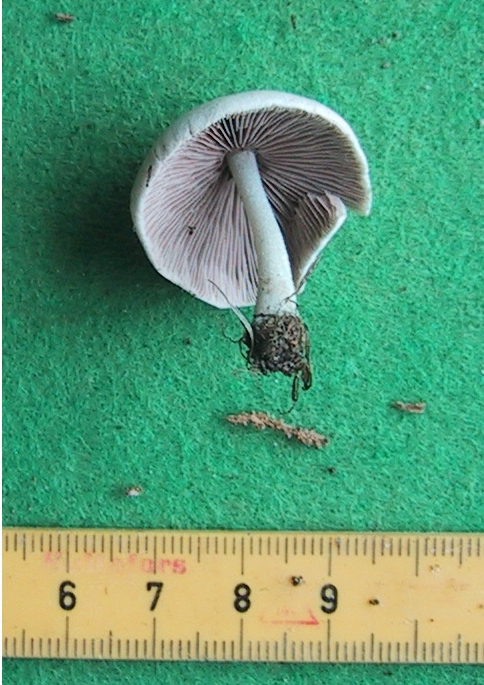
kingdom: Fungi
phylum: Basidiomycota
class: Agaricomycetes
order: Agaricales
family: Psathyrellaceae
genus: Candolleomyces
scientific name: Candolleomyces candolleanus
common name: Candolles mørkhat
